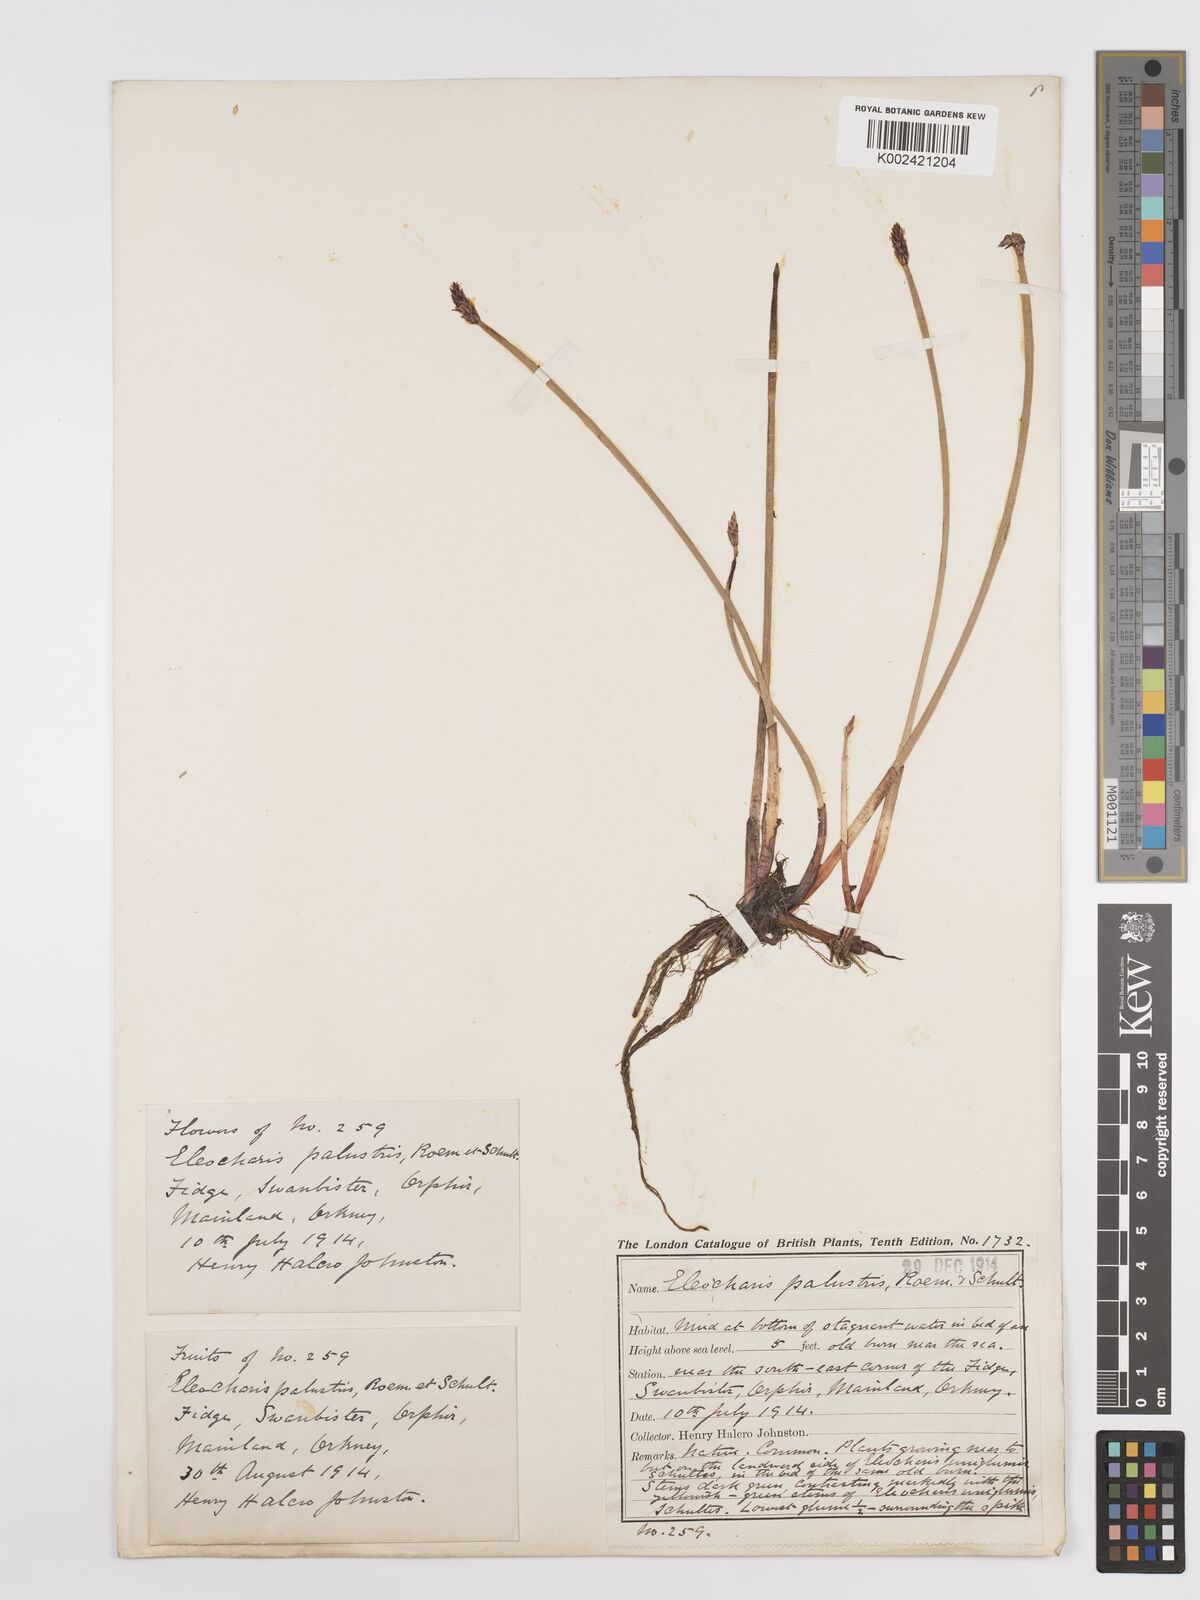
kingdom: Plantae
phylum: Tracheophyta
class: Liliopsida
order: Poales
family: Cyperaceae
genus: Eleocharis
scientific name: Eleocharis palustris
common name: Common spike-rush
